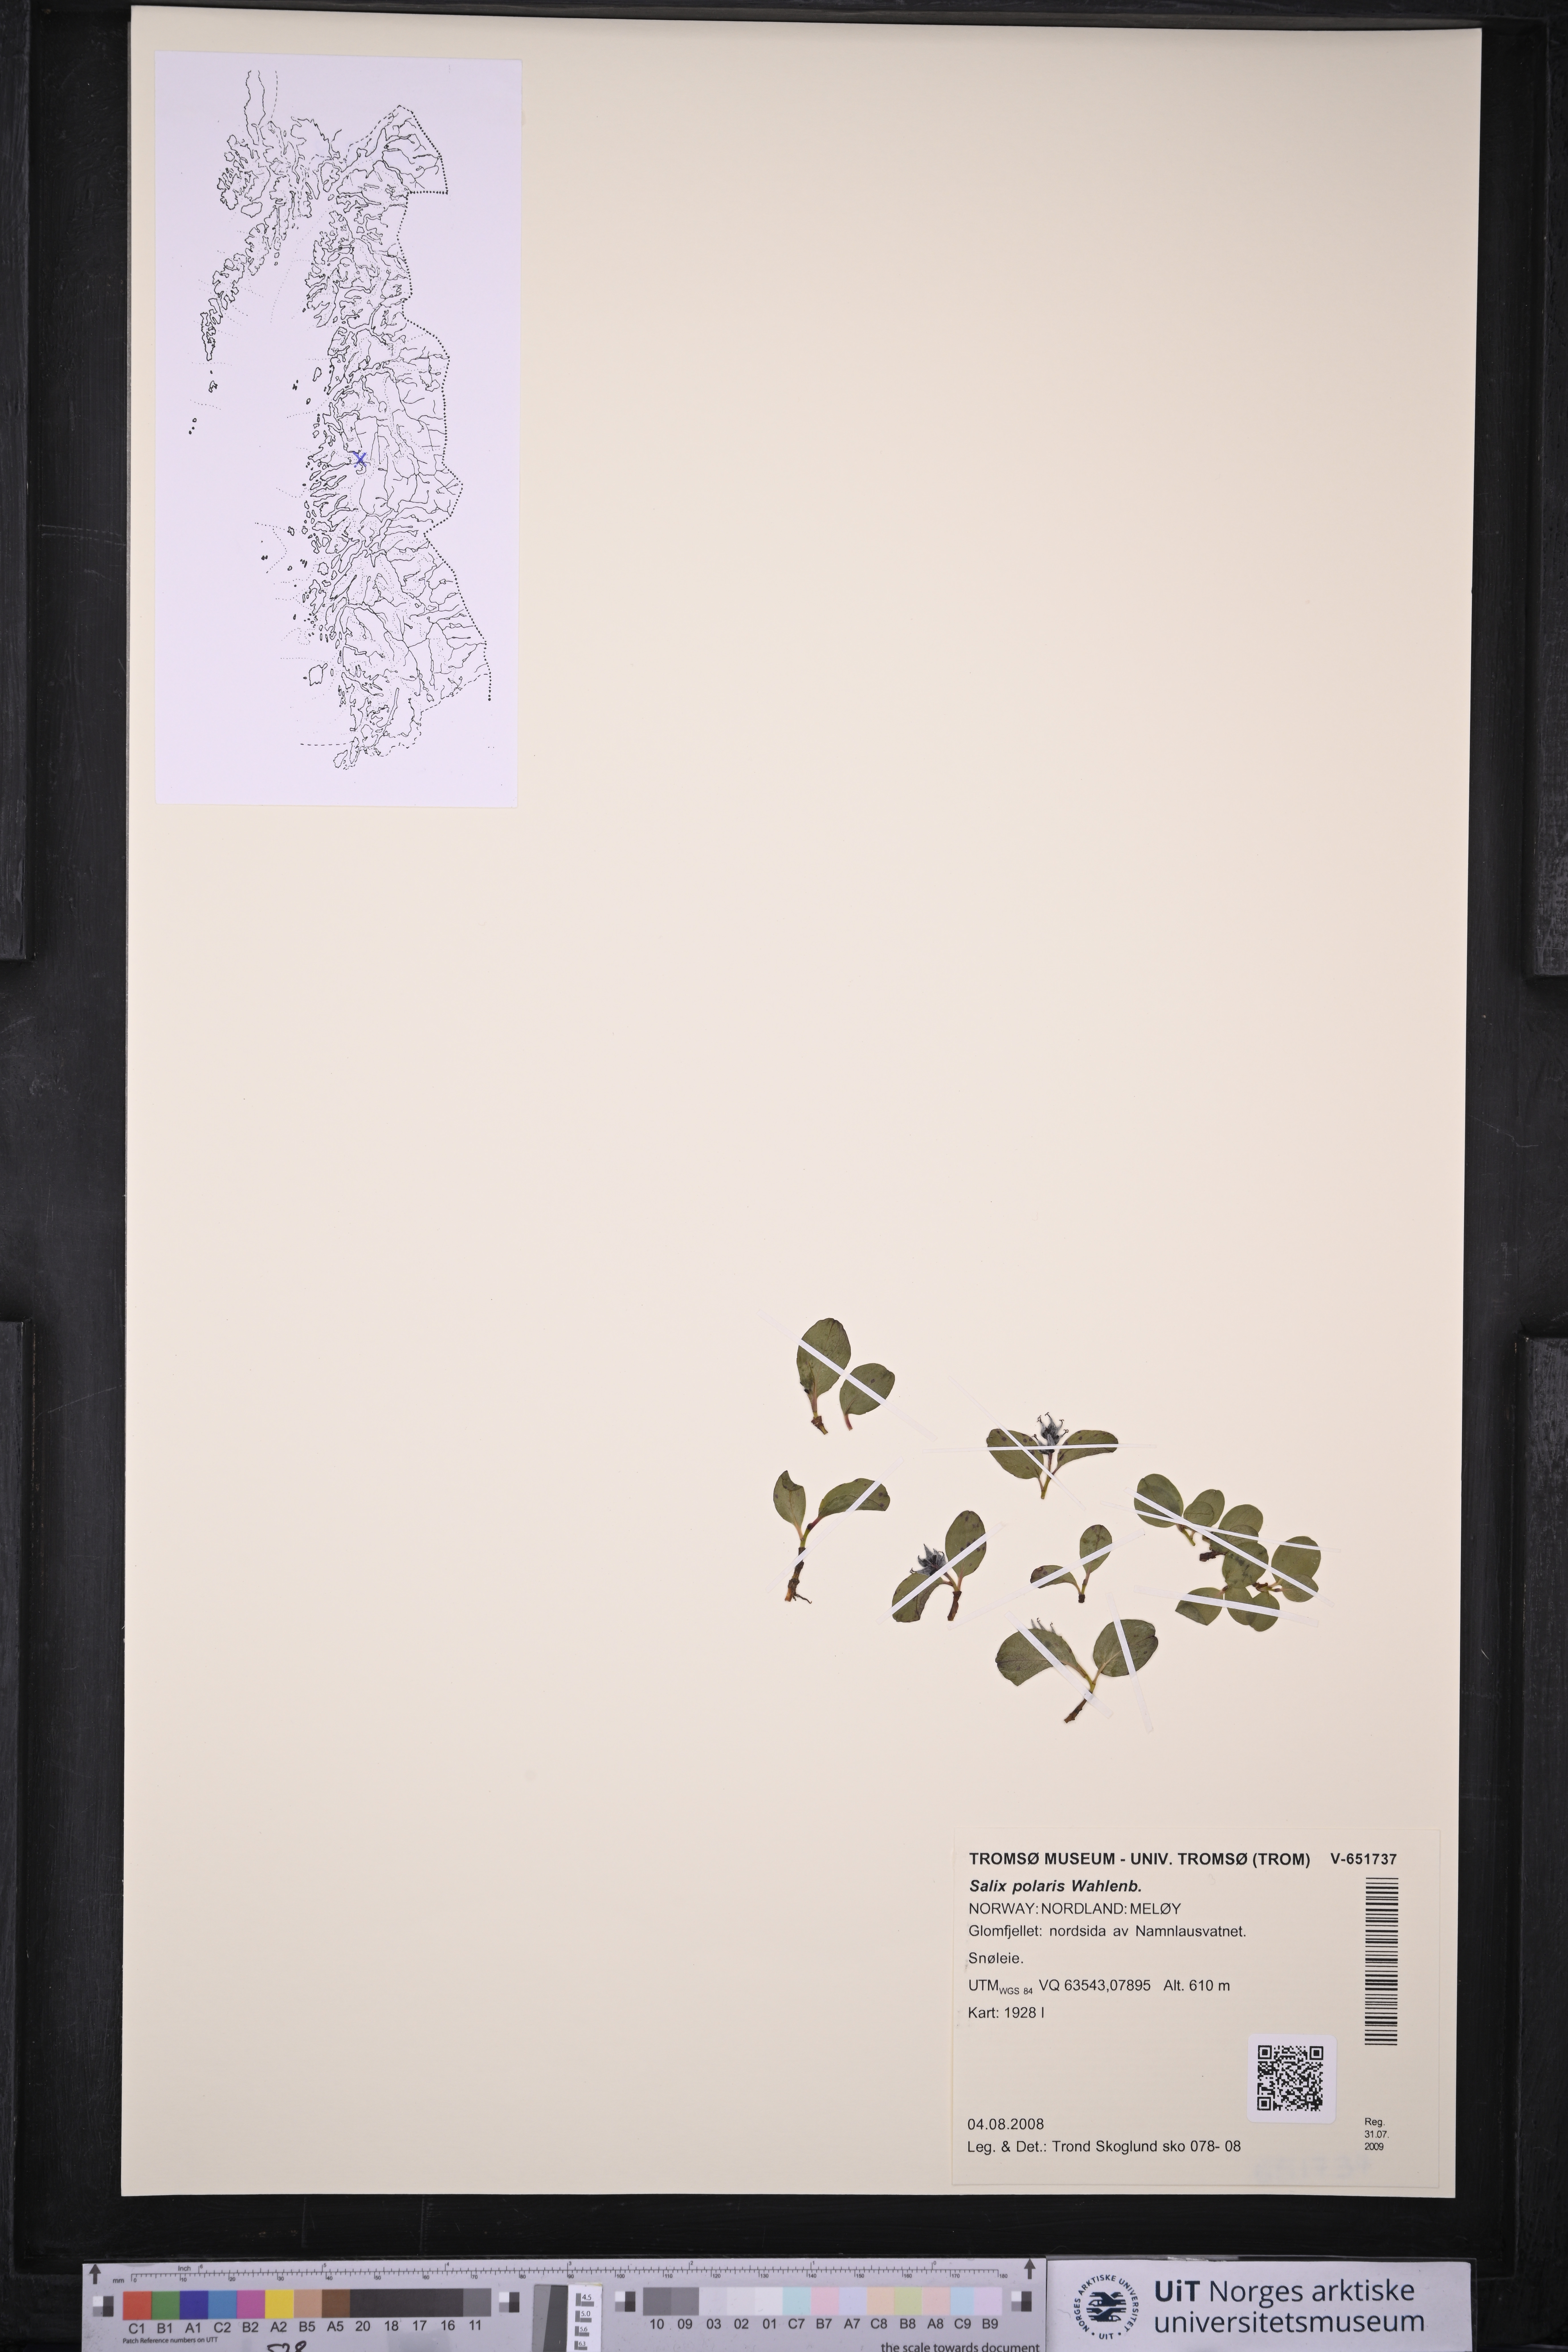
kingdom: Plantae
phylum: Tracheophyta
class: Magnoliopsida
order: Malpighiales
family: Salicaceae
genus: Salix
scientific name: Salix polaris
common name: Polar willow
